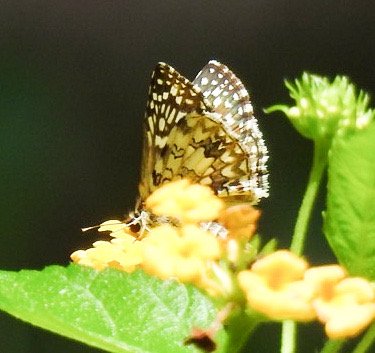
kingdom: Animalia
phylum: Arthropoda
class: Insecta
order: Lepidoptera
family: Hesperiidae
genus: Pyrgus
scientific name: Pyrgus oileus
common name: Tropical Checkered-Skipper
